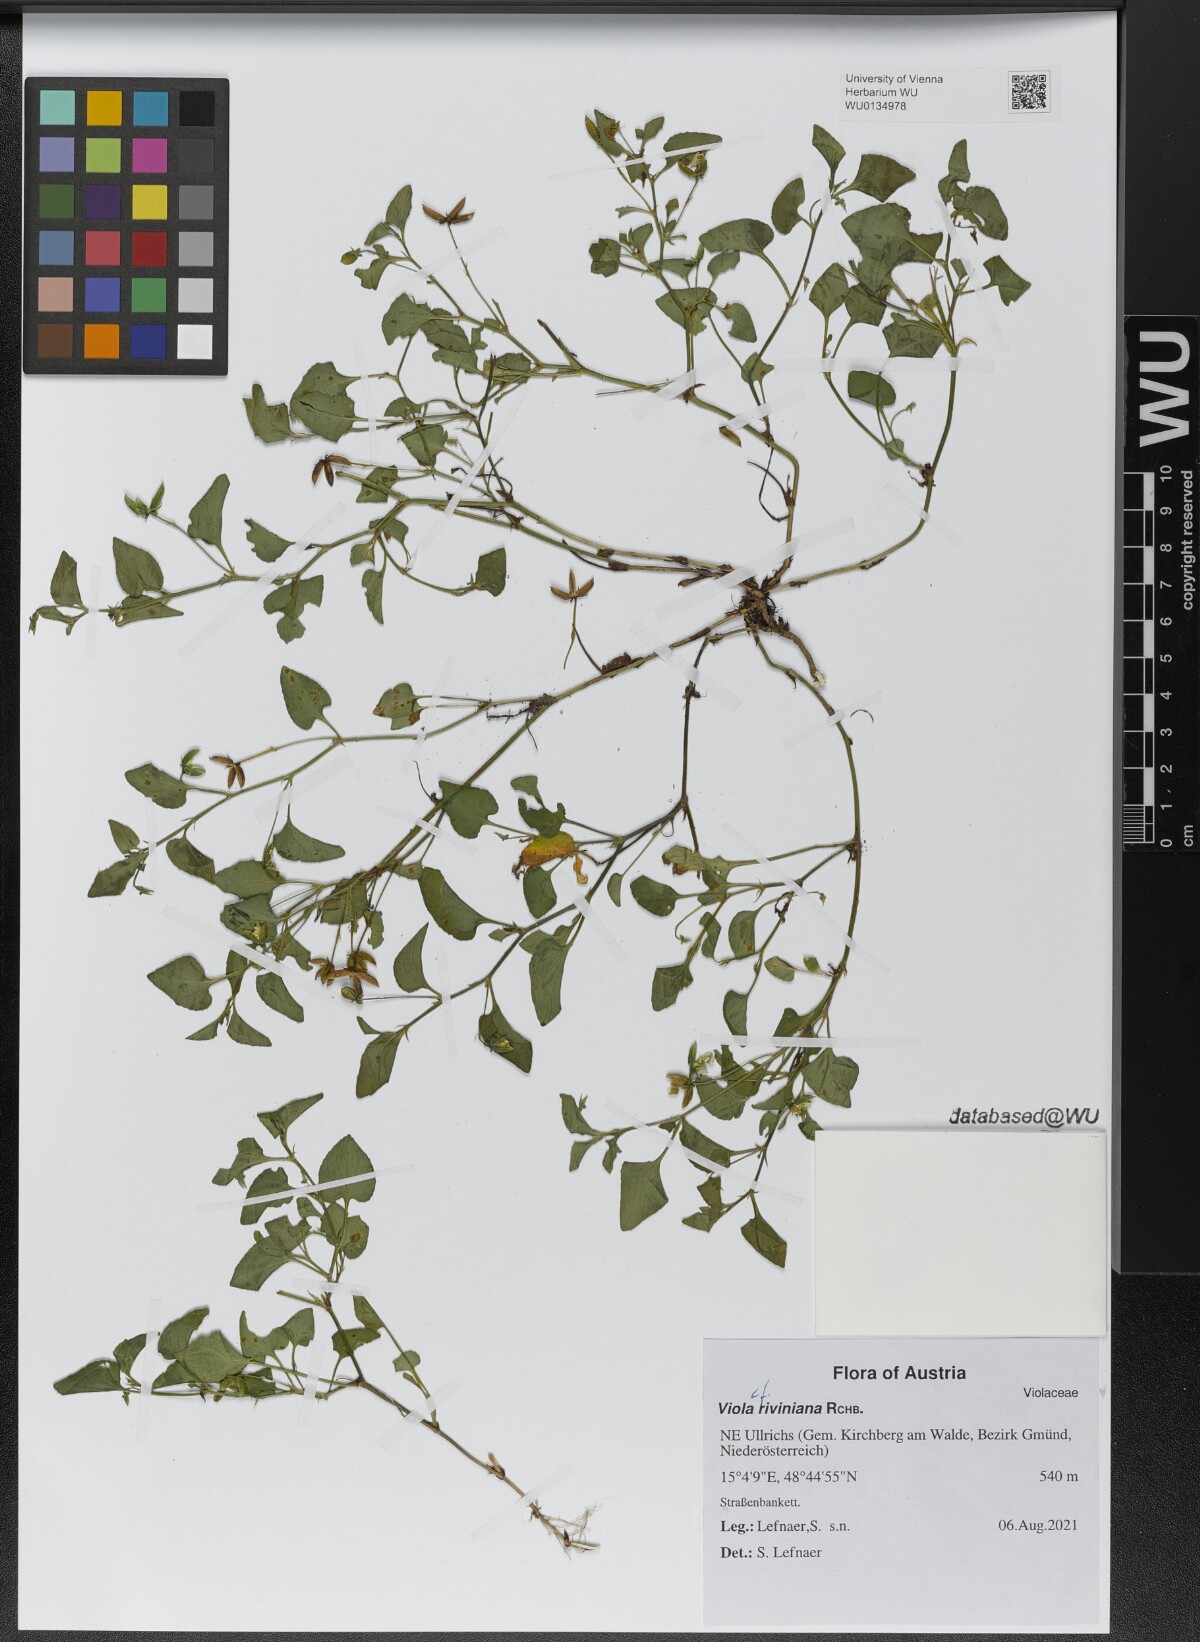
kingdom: Plantae
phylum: Tracheophyta
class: Magnoliopsida
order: Malpighiales
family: Violaceae
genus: Viola
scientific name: Viola riviniana
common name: Common dog-violet
